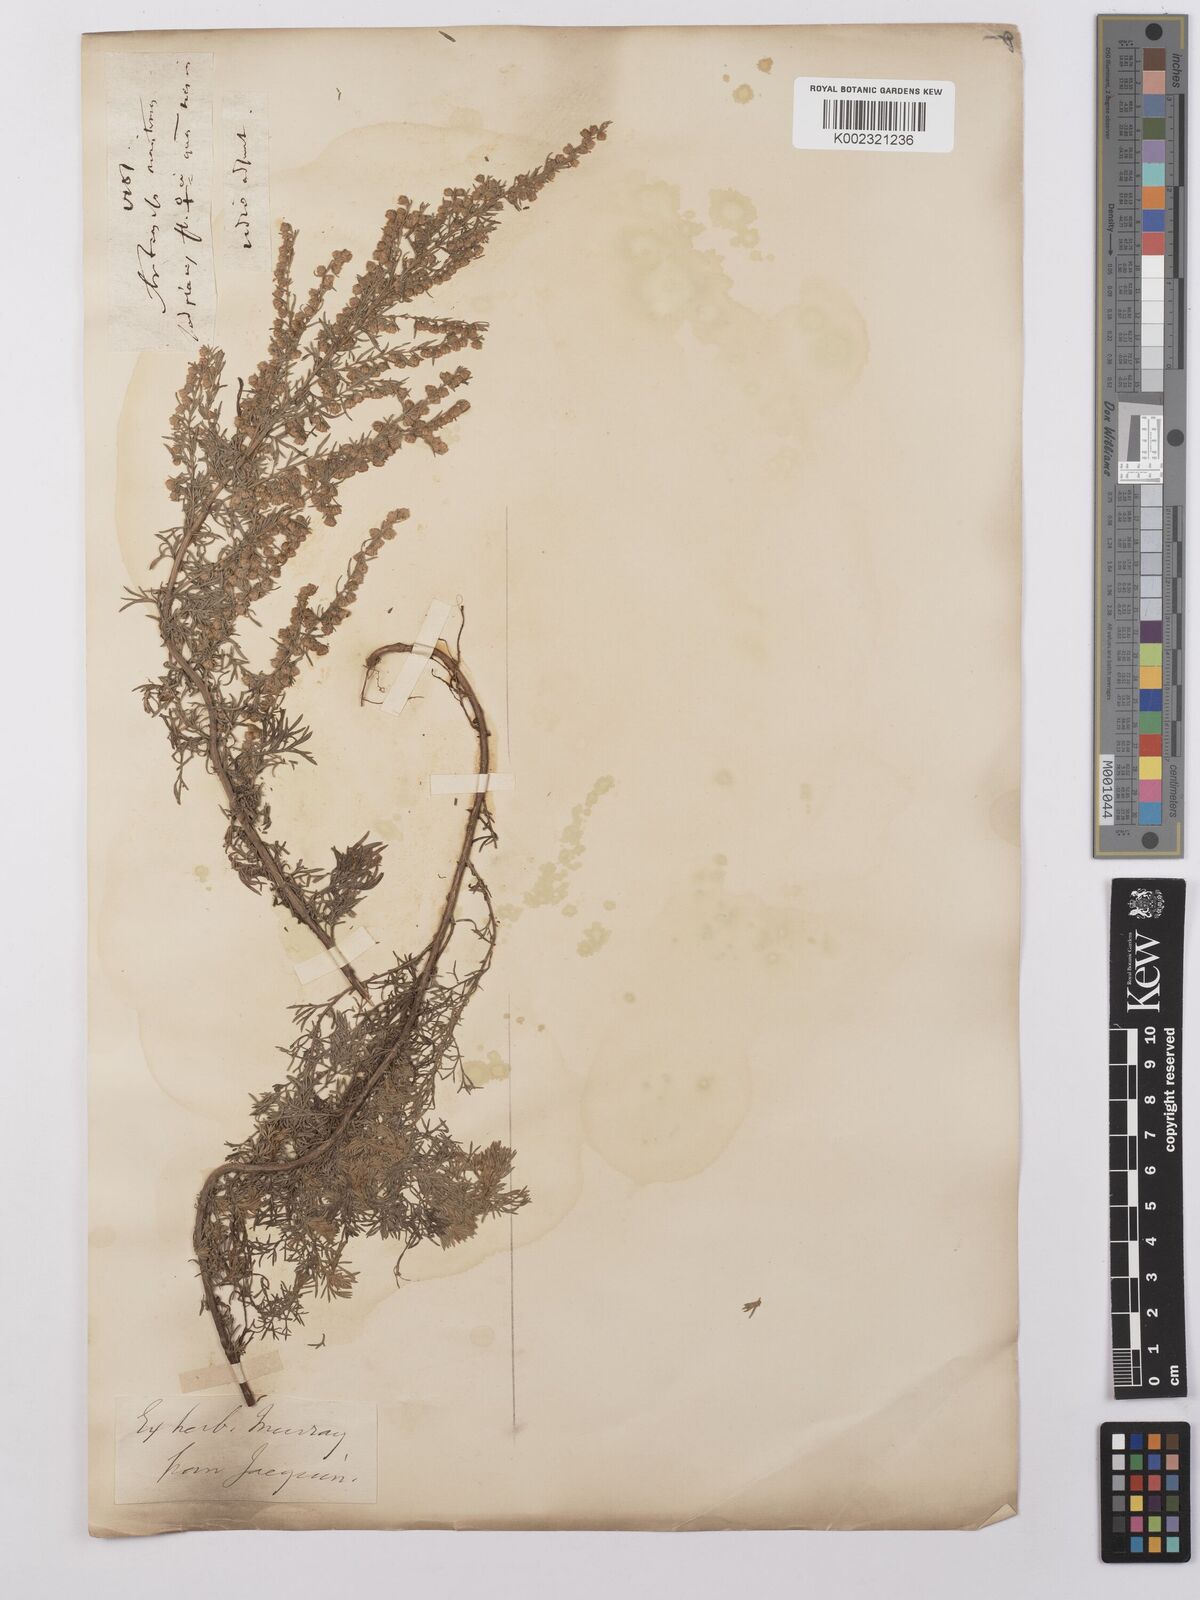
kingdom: Plantae
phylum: Tracheophyta
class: Magnoliopsida
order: Asterales
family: Asteraceae
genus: Artemisia
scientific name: Artemisia maritima
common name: Wormseed
